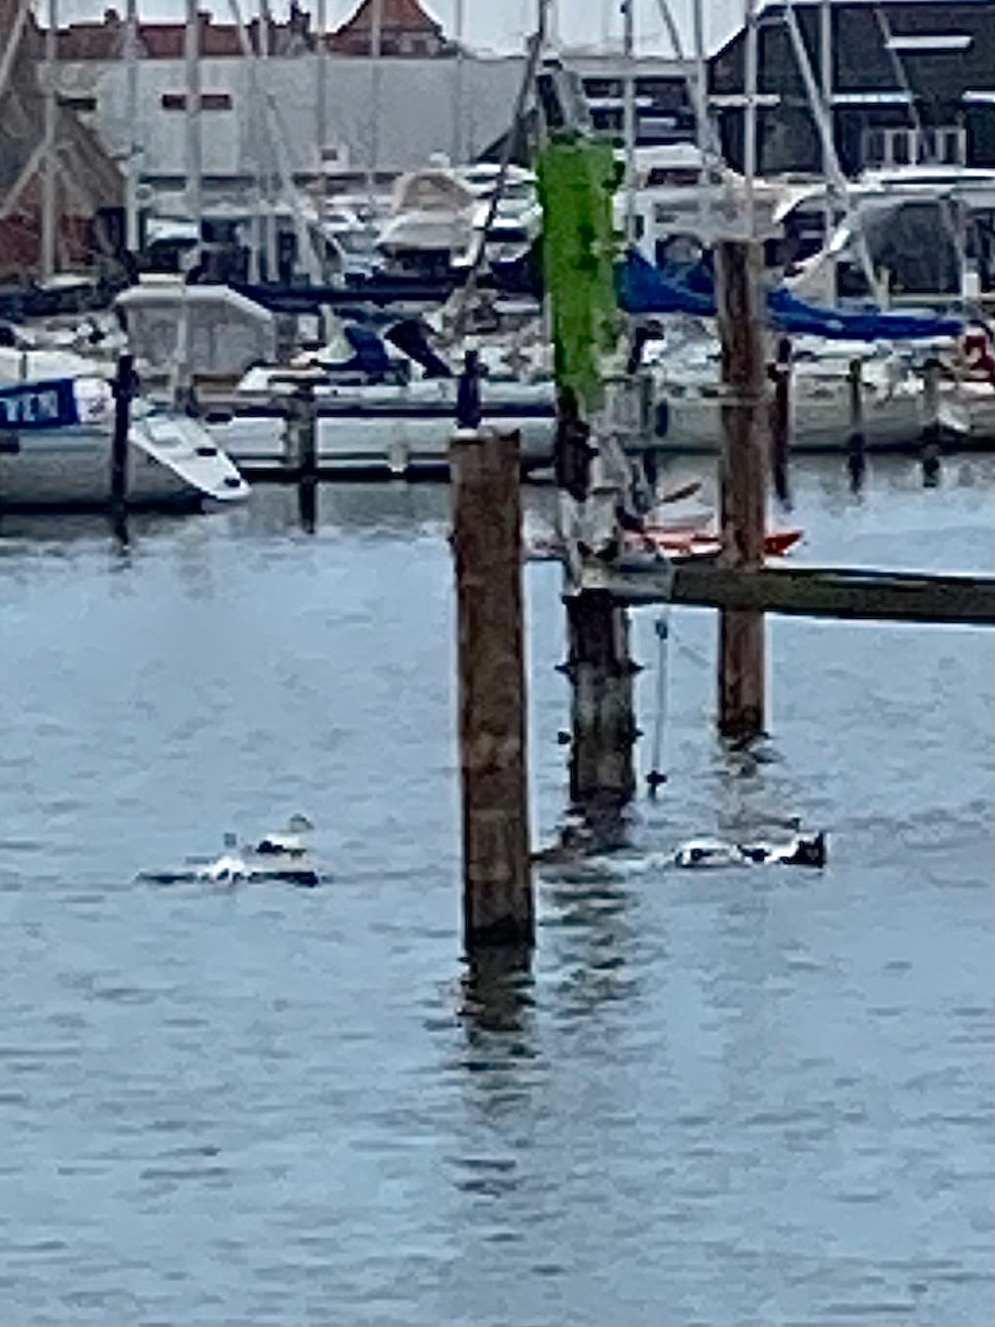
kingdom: Animalia
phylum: Chordata
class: Aves
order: Anseriformes
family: Anatidae
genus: Somateria
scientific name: Somateria mollissima
